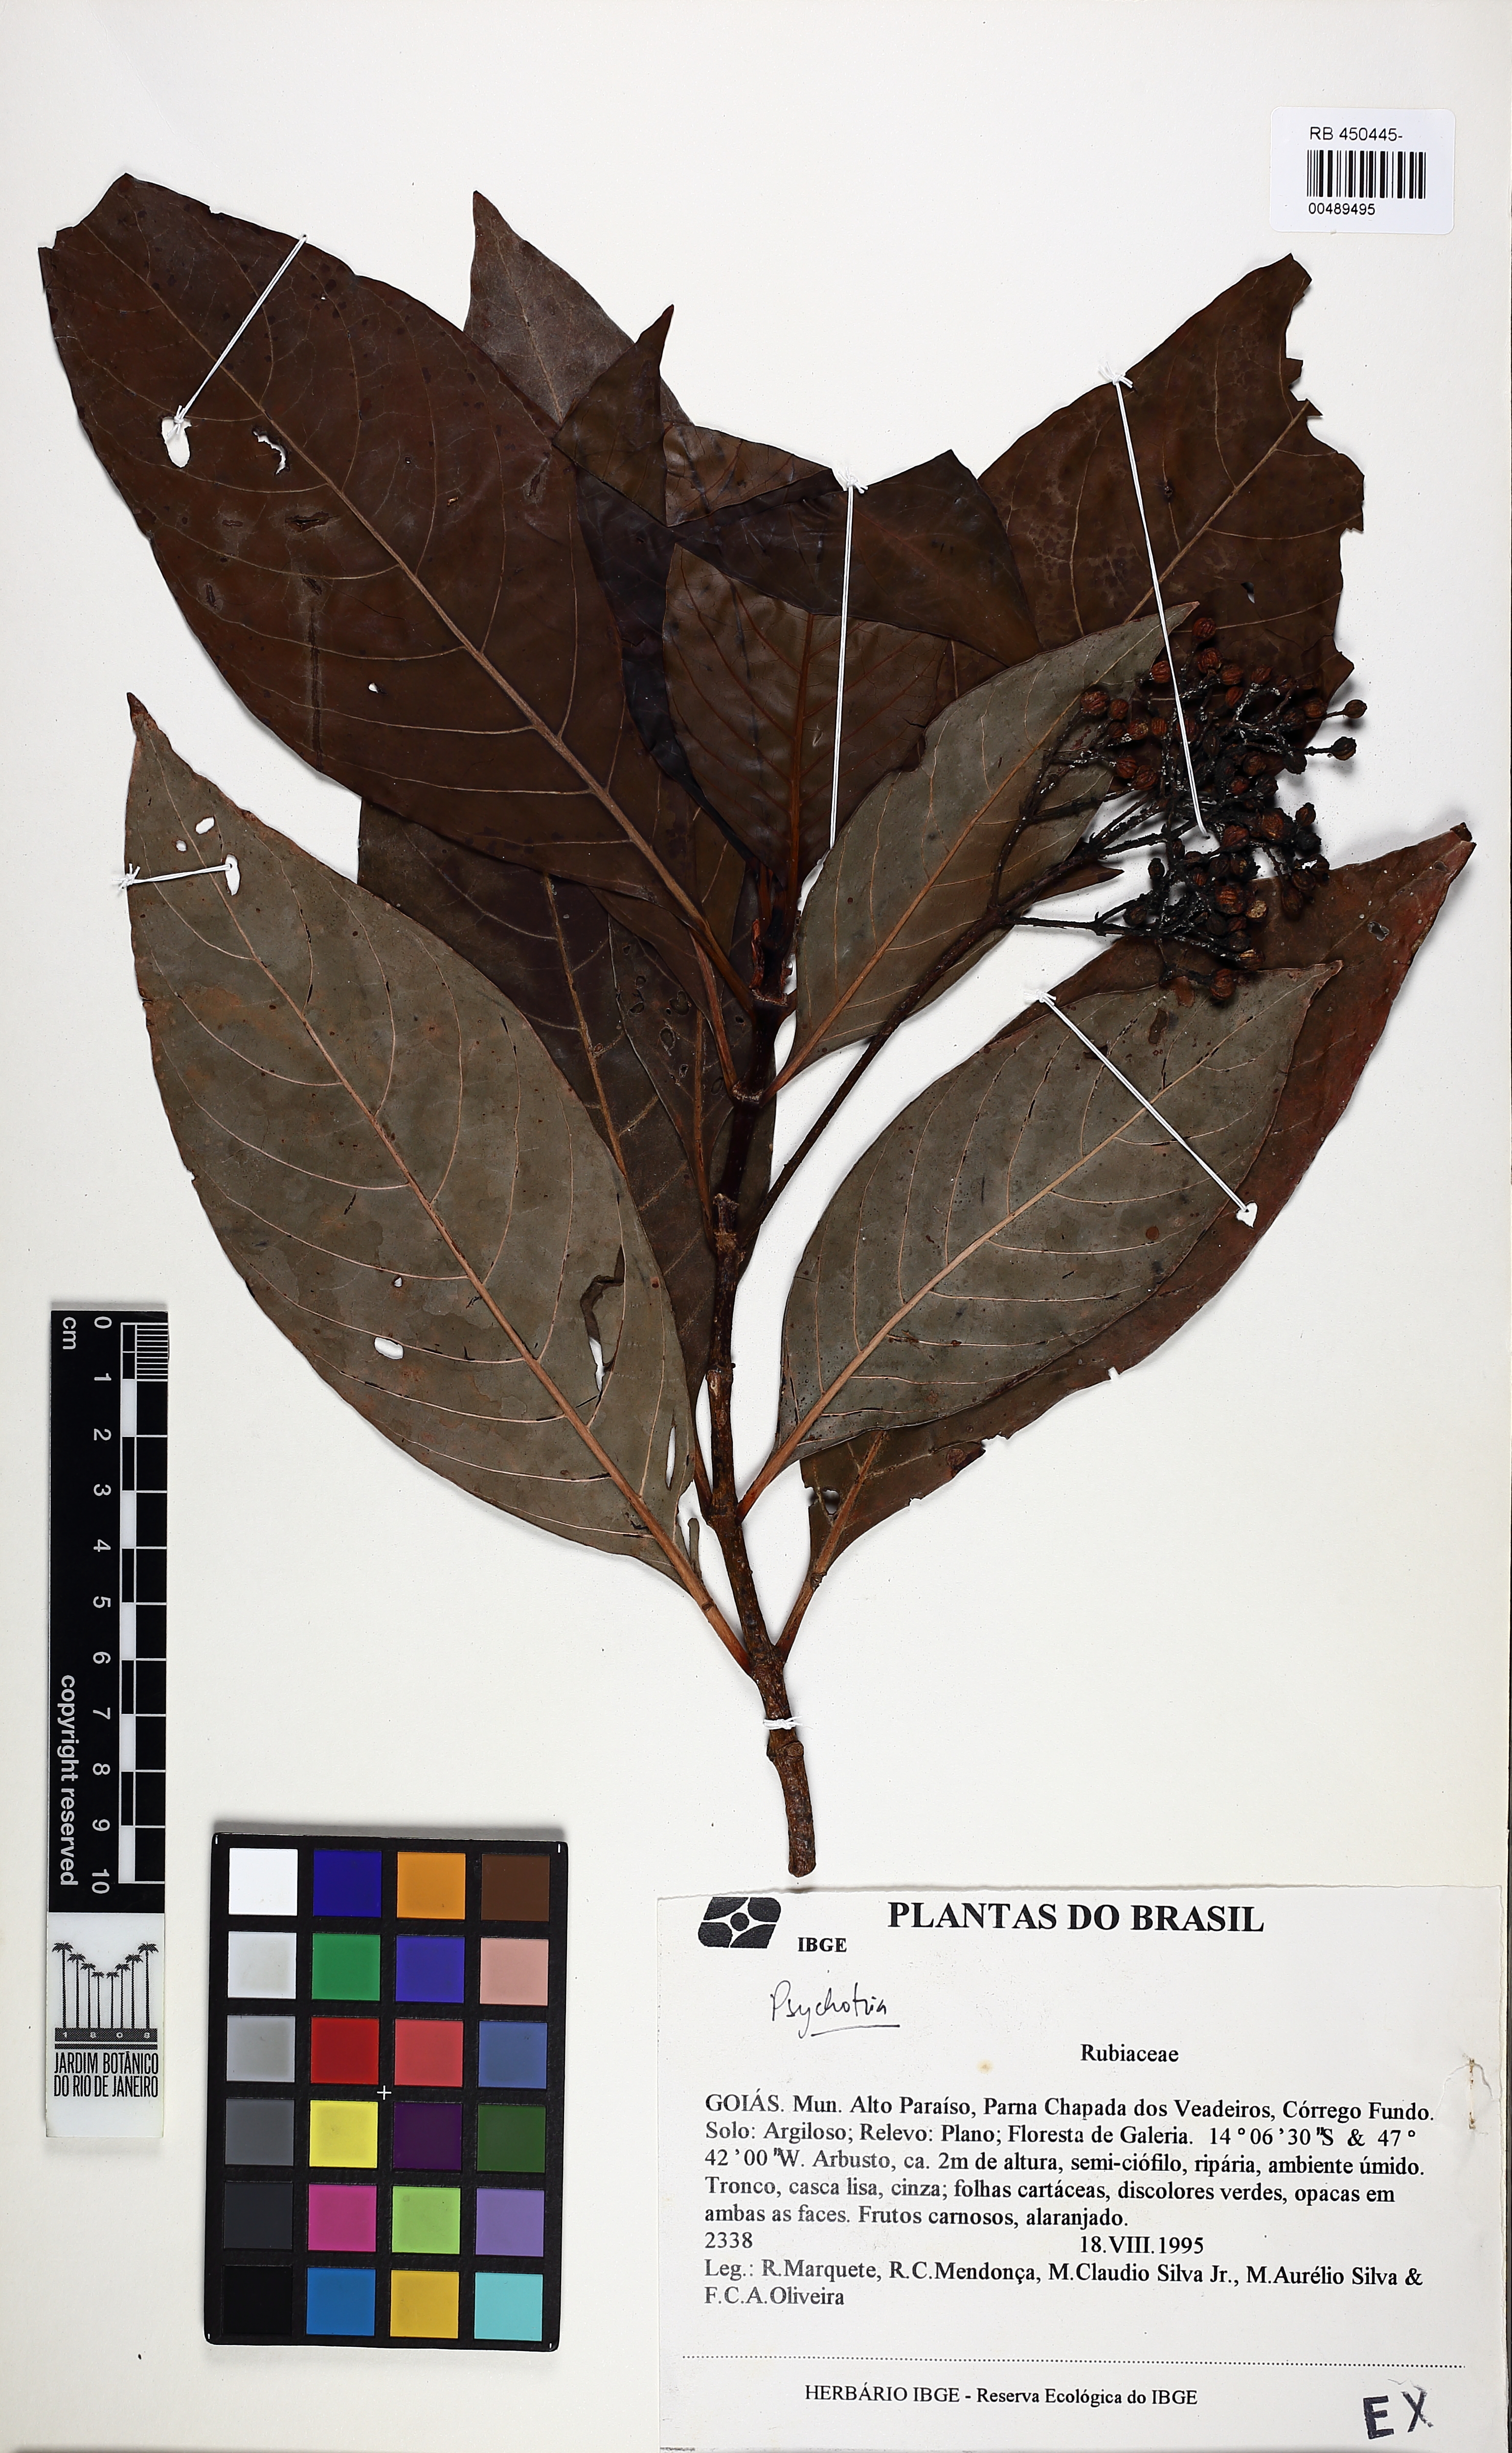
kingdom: Plantae
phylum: Tracheophyta
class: Magnoliopsida
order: Gentianales
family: Rubiaceae
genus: Psychotria
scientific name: Psychotria
